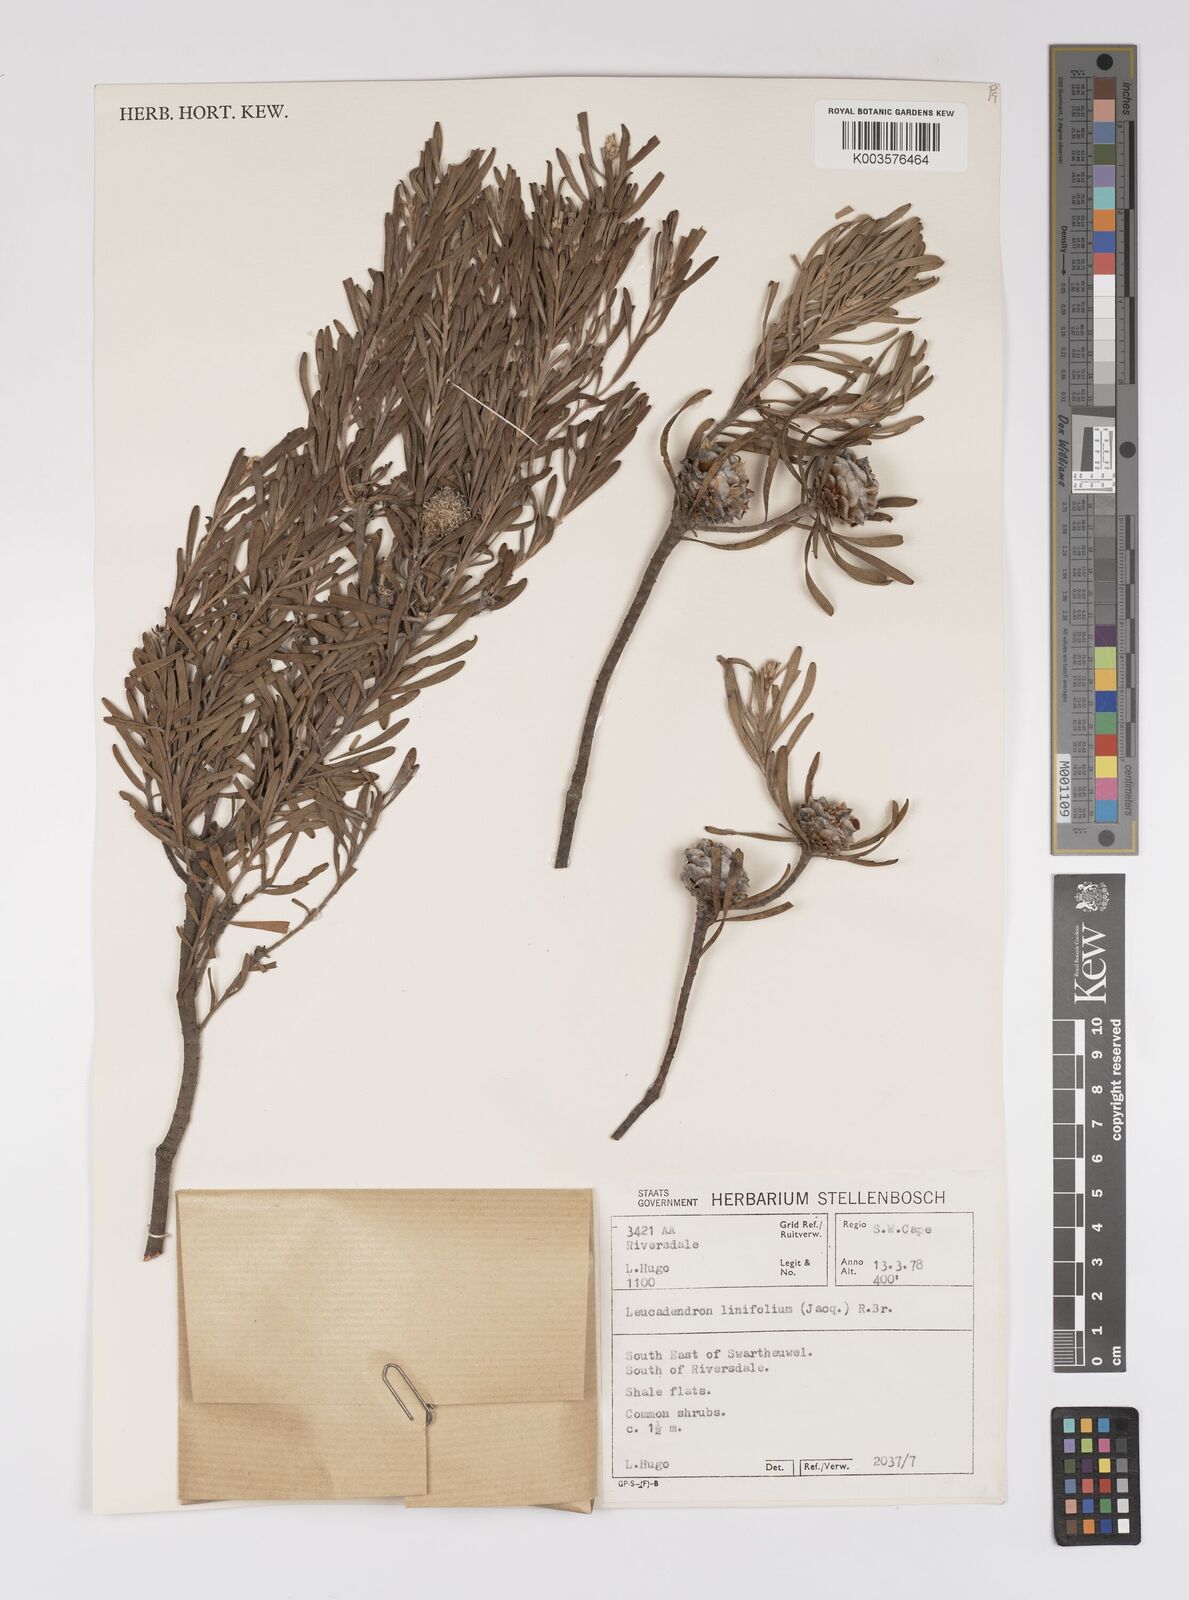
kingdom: Plantae
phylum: Tracheophyta
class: Magnoliopsida
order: Proteales
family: Proteaceae
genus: Leucadendron
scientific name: Leucadendron linifolium
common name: Line-leaf conebush
